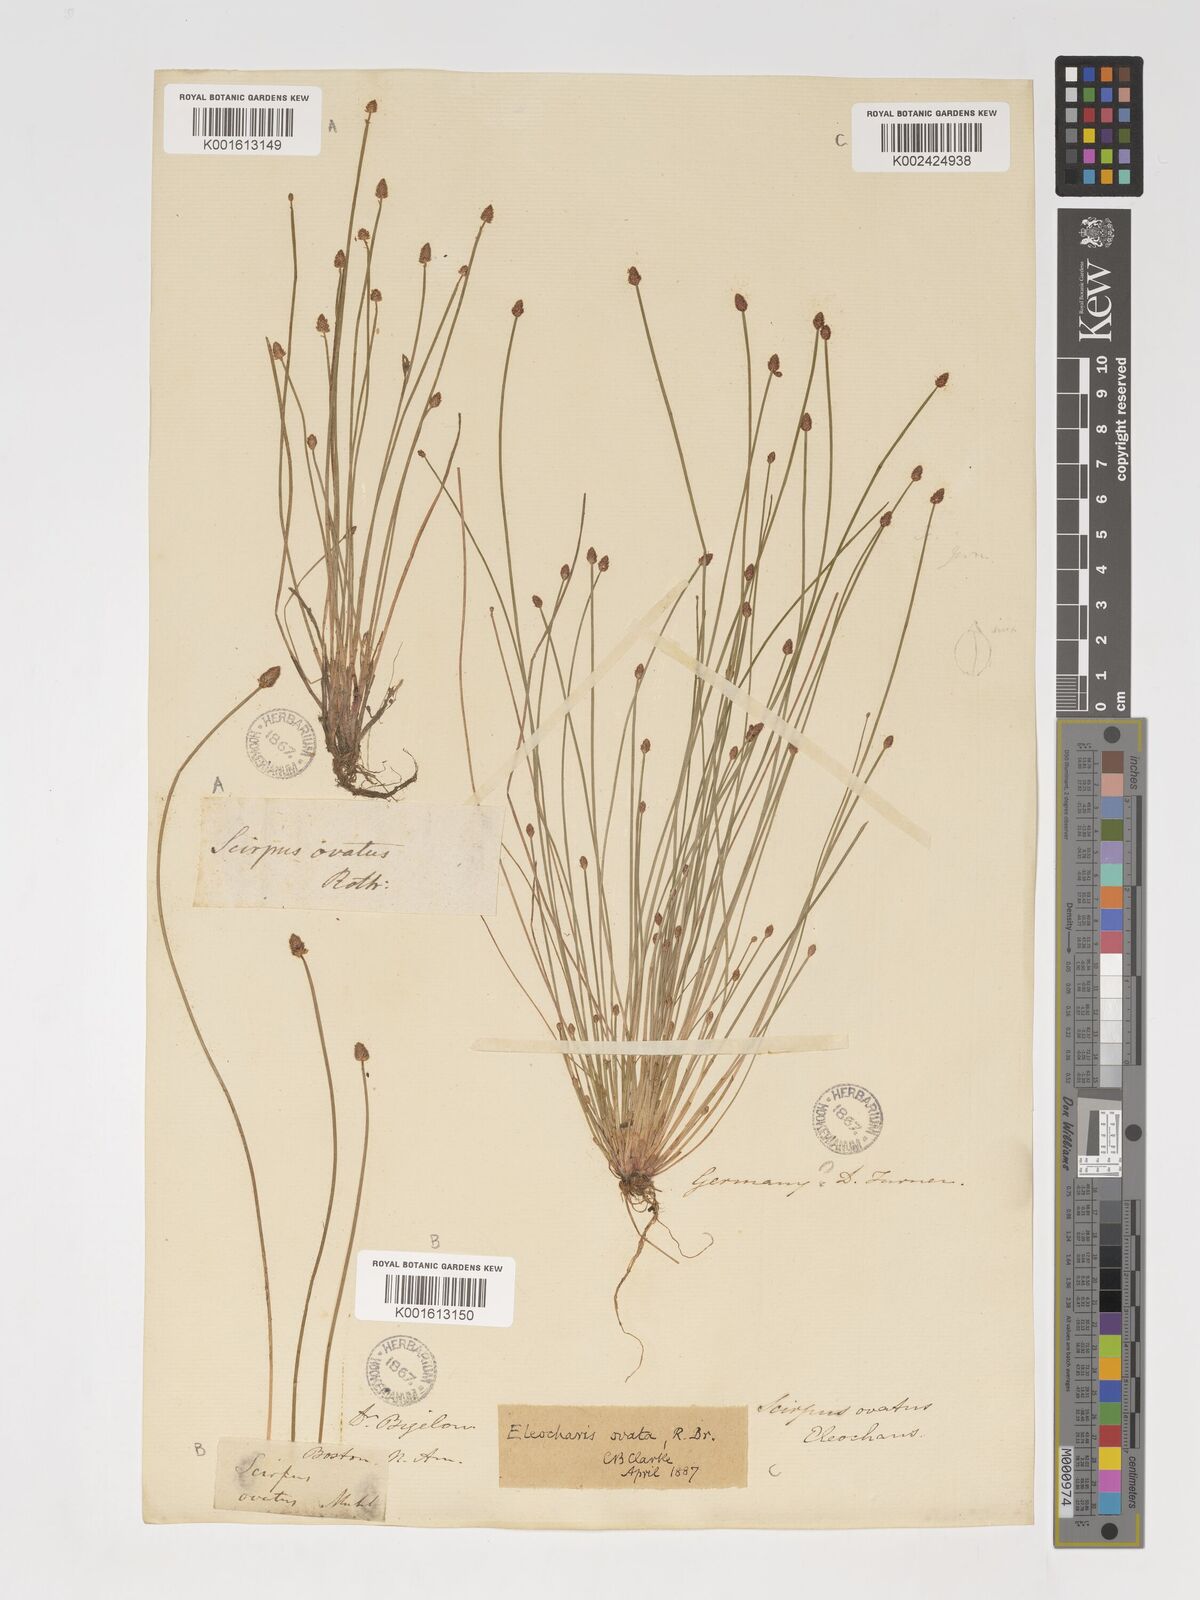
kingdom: Plantae
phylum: Tracheophyta
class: Liliopsida
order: Poales
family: Cyperaceae
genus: Eleocharis
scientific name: Eleocharis ovata
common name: Oval spike-rush
